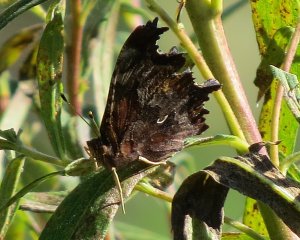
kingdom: Animalia
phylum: Arthropoda
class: Insecta
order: Lepidoptera
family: Nymphalidae
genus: Polygonia
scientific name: Polygonia comma
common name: Eastern Comma
